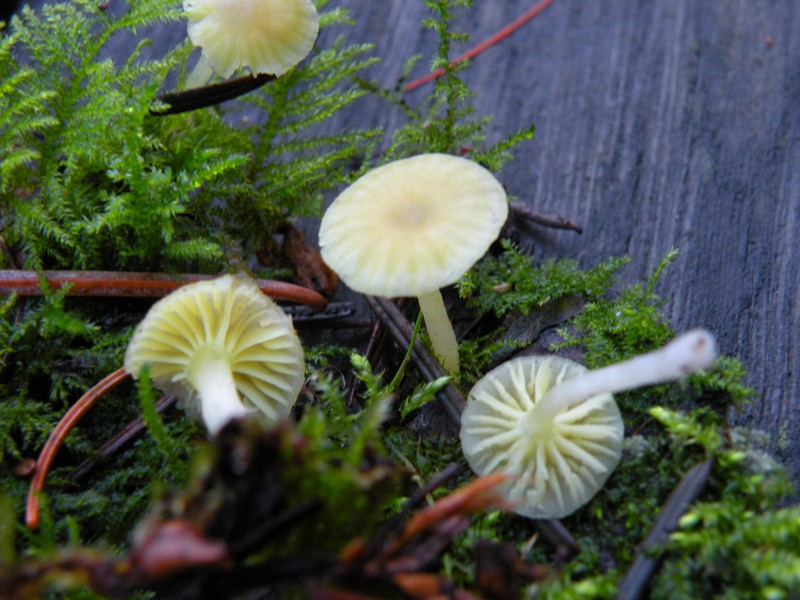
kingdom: Fungi
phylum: Basidiomycota
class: Agaricomycetes
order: Agaricales
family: Hygrophoraceae
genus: Chrysomphalina
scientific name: Chrysomphalina grossula
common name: stød-gyldenblad
